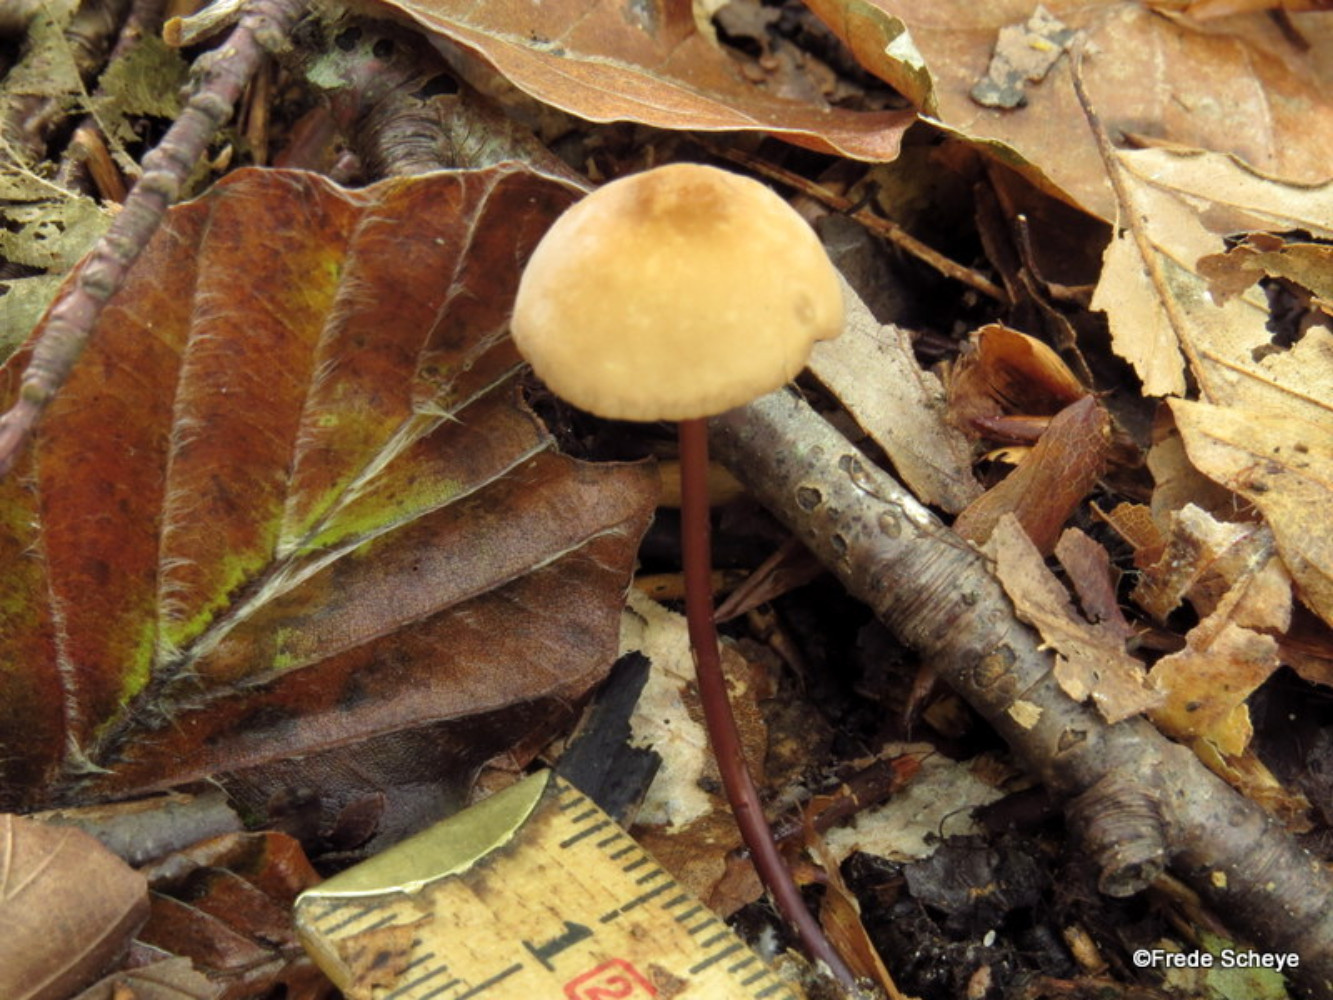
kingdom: Fungi
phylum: Basidiomycota
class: Agaricomycetes
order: Agaricales
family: Marasmiaceae
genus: Marasmius
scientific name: Marasmius cohaerens
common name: hornstokket bruskhat
